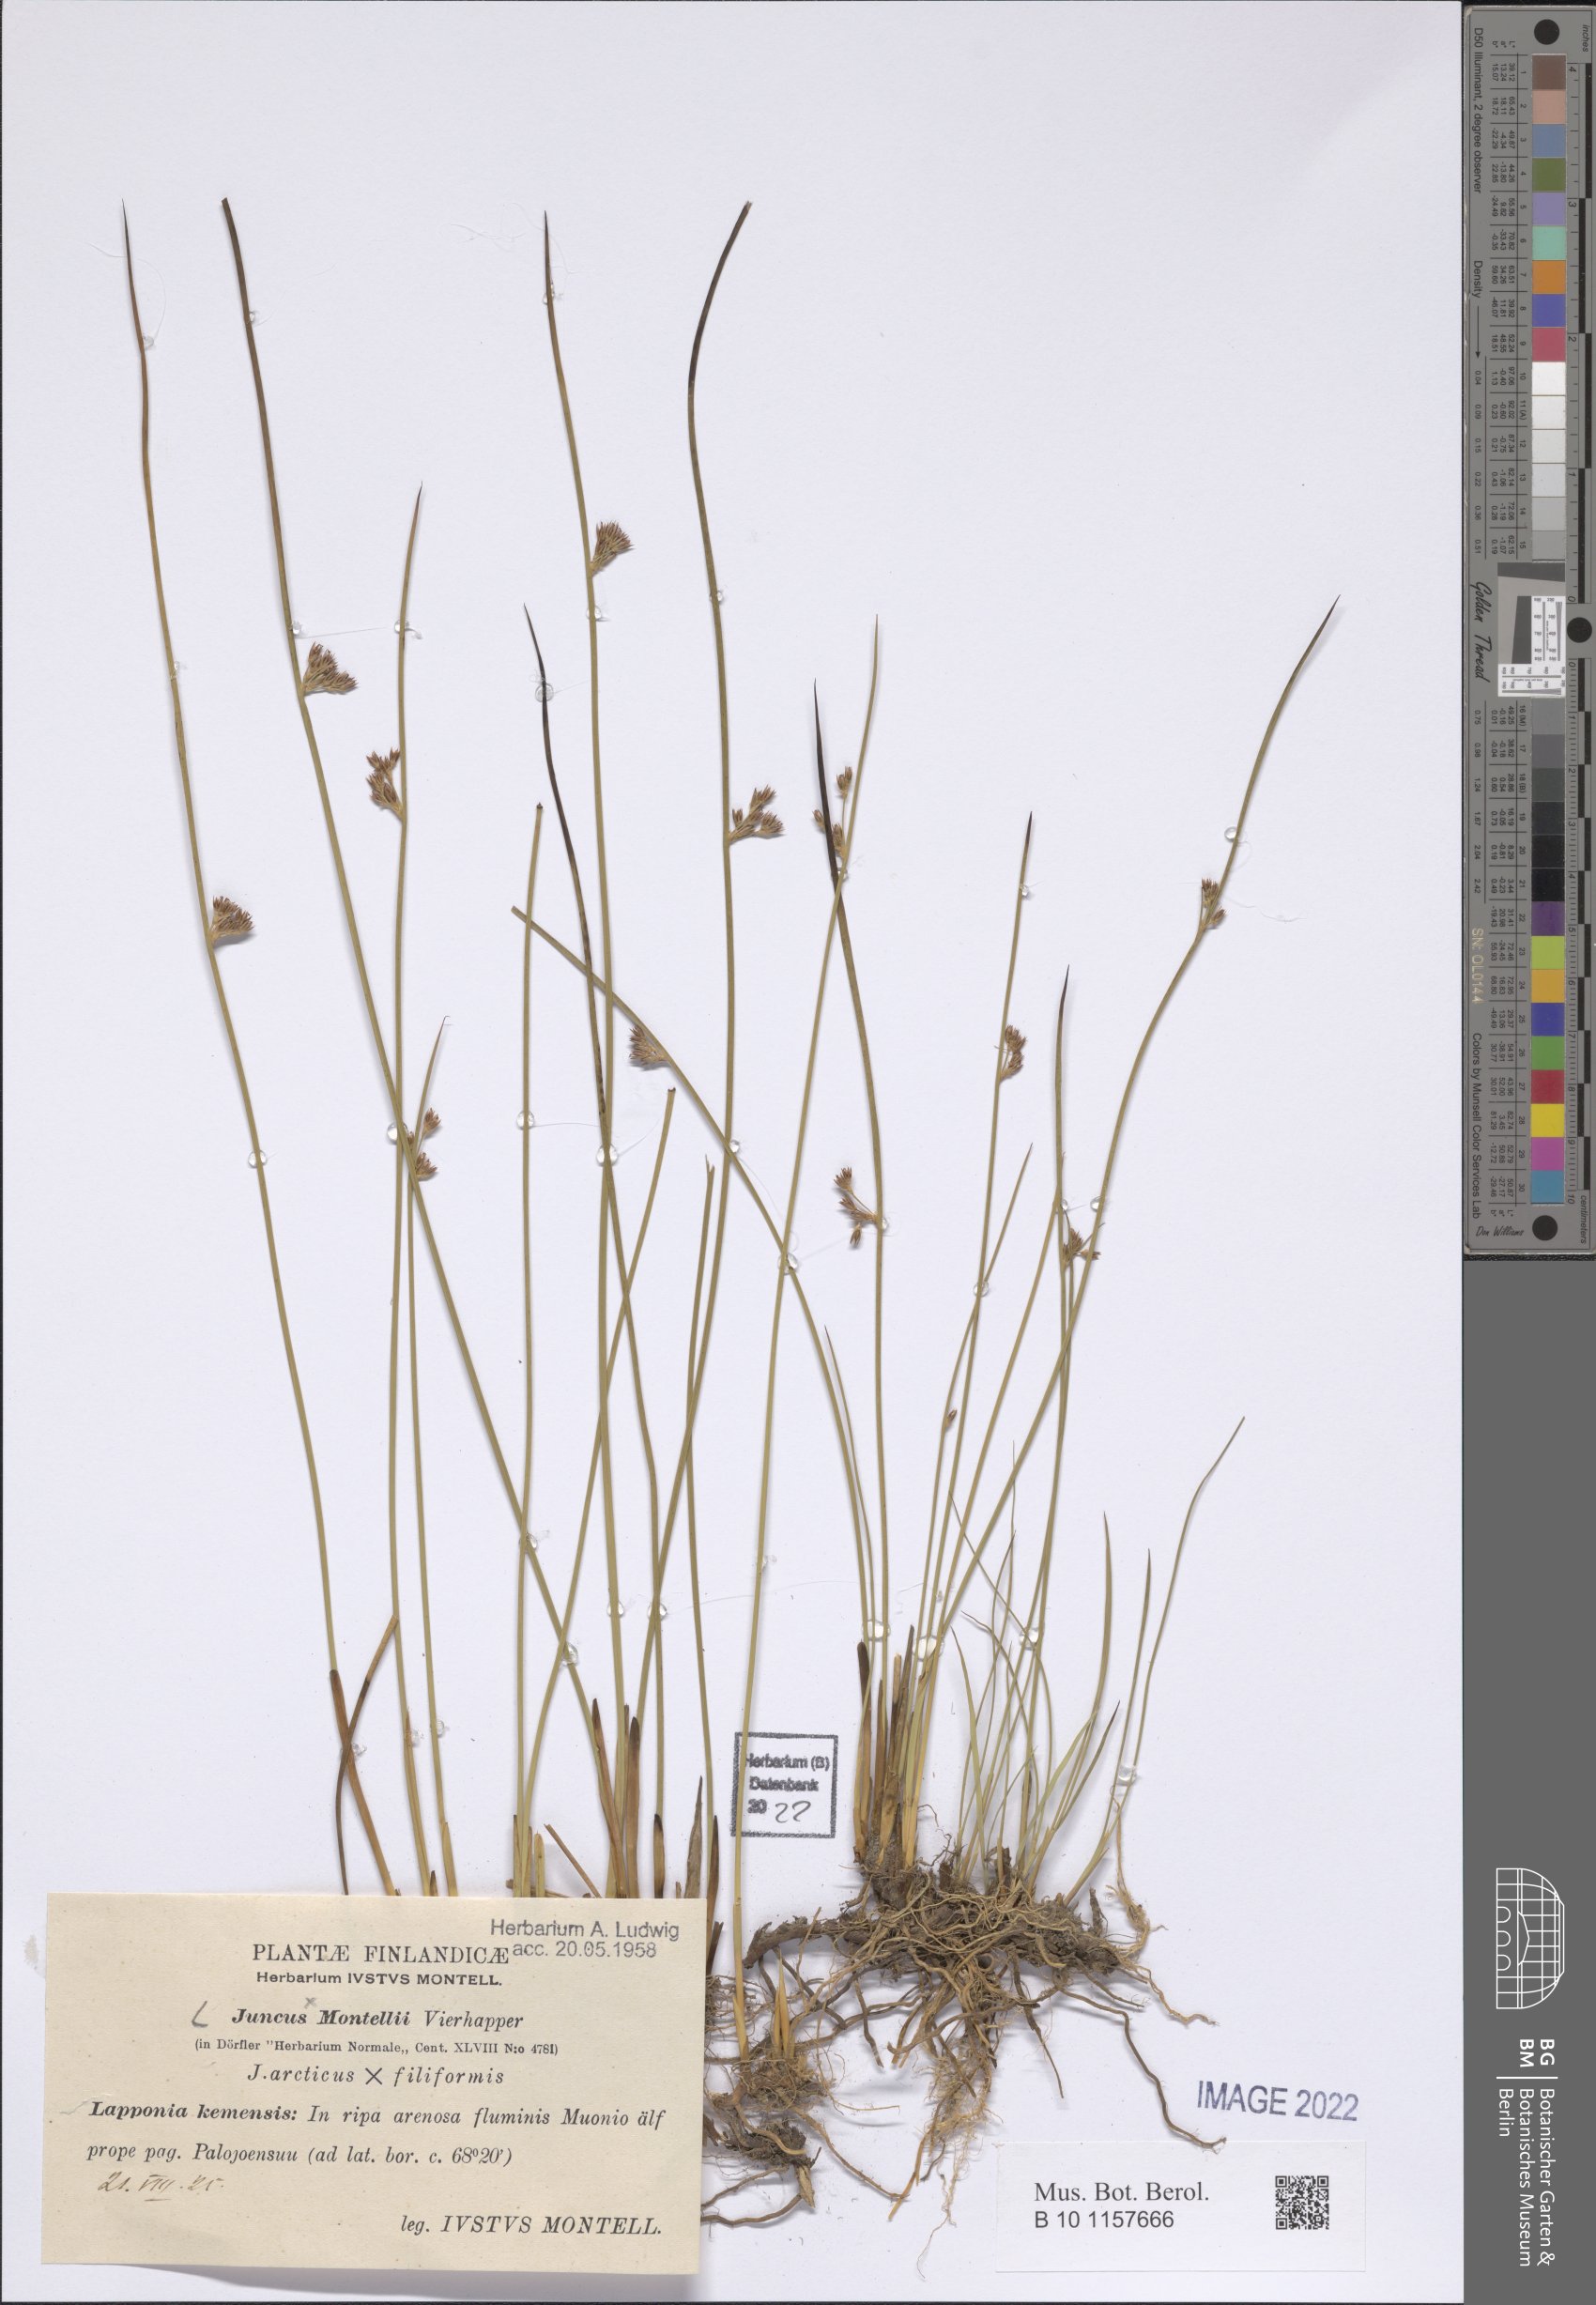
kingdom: Plantae
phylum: Tracheophyta
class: Liliopsida
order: Poales
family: Juncaceae
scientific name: Juncaceae
